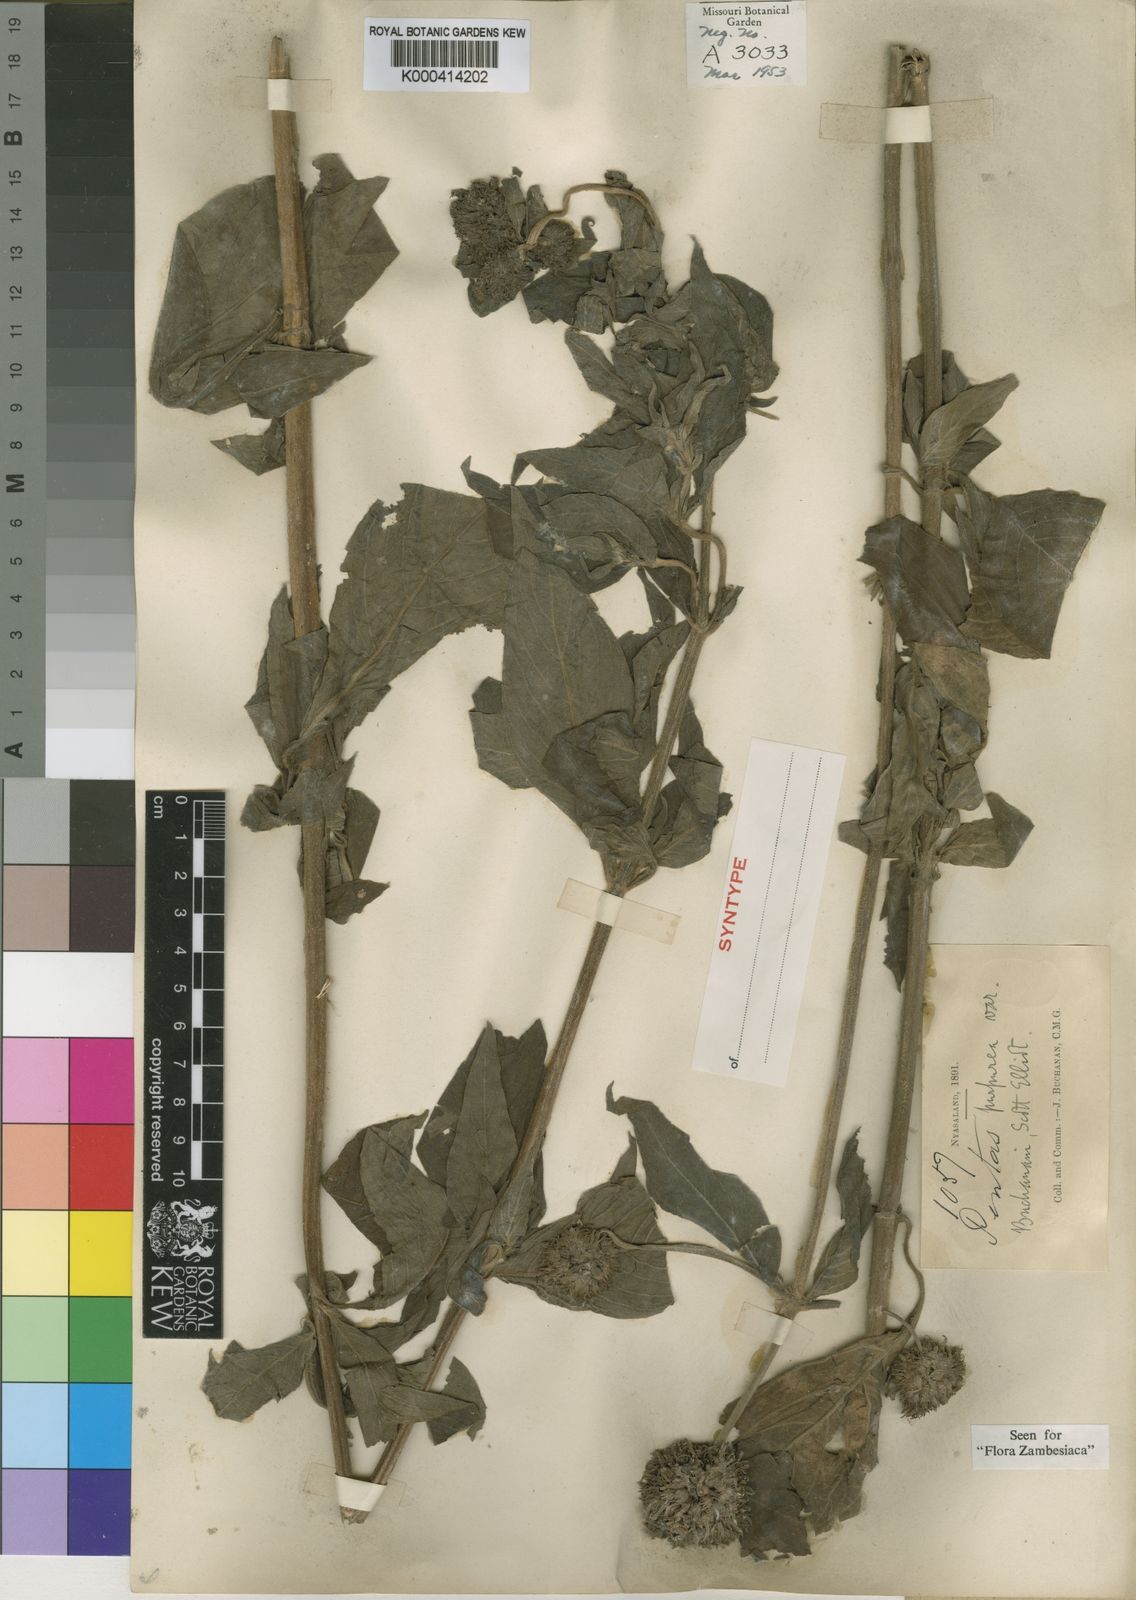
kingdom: Plantae
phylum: Tracheophyta
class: Magnoliopsida
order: Gentianales
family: Rubiaceae
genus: Pentas
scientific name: Pentas purpurea
